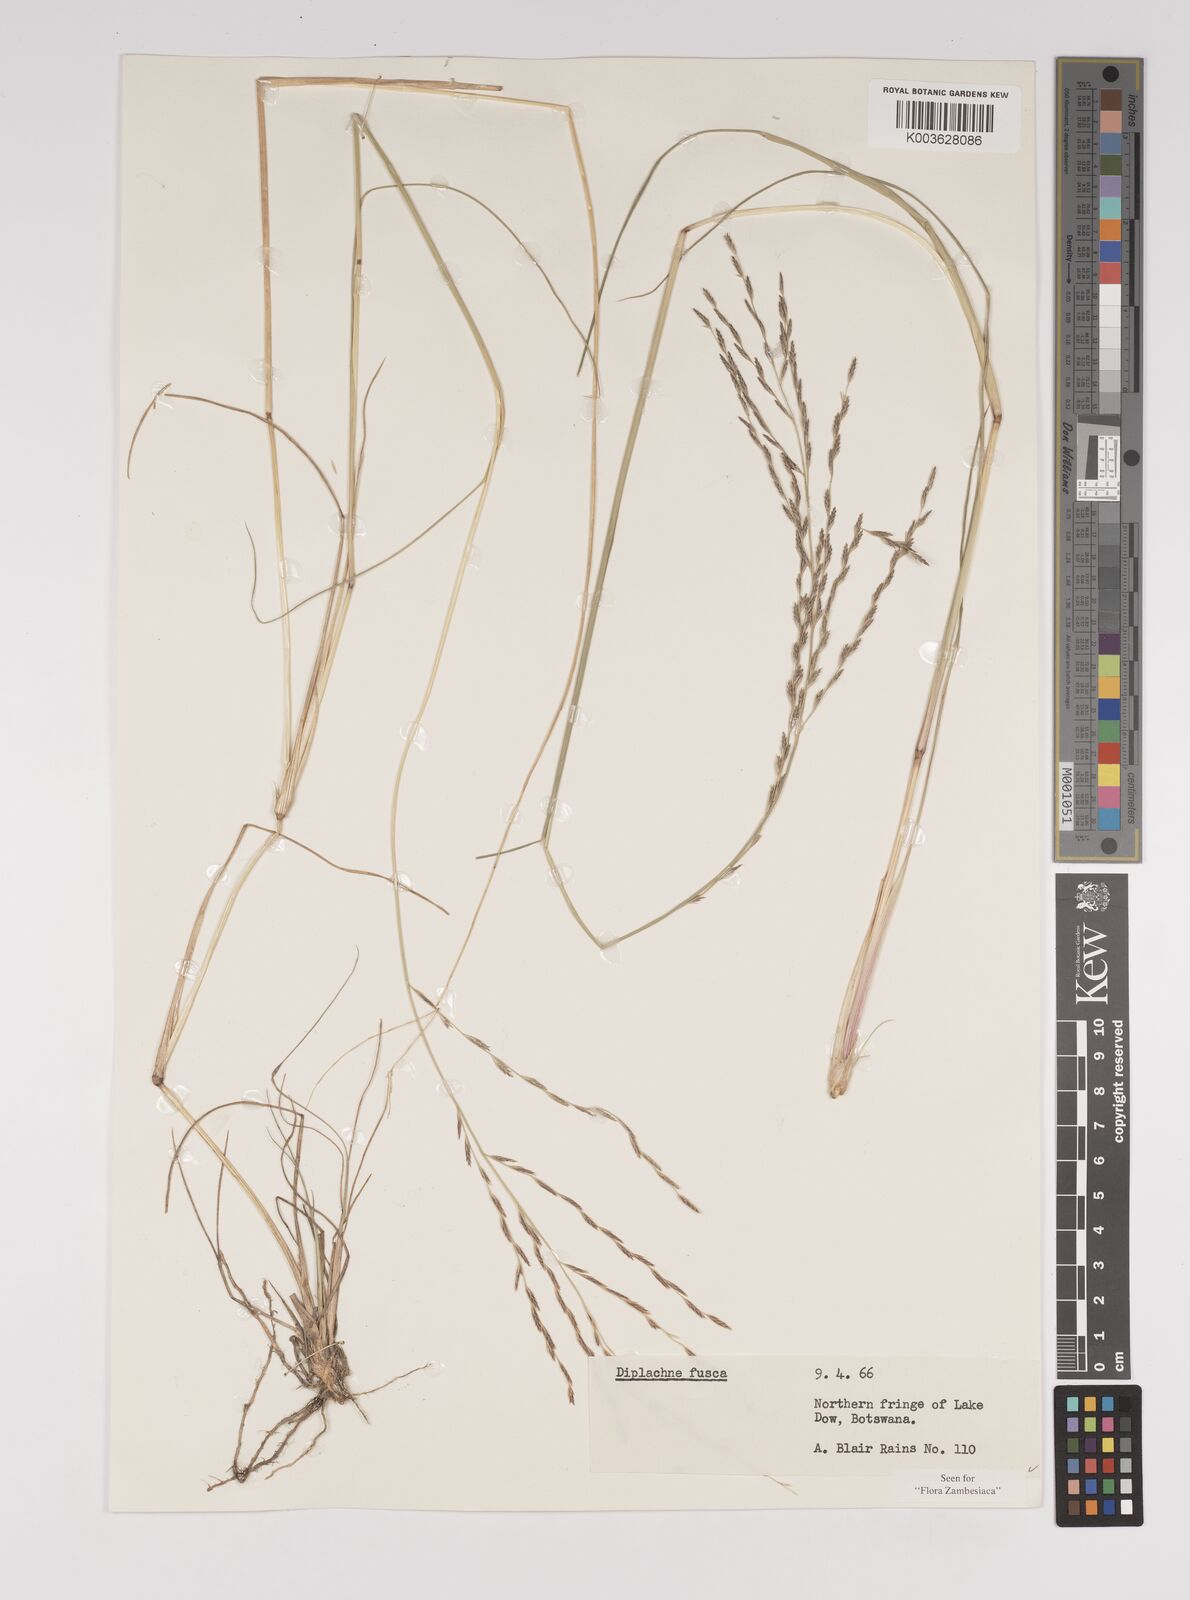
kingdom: Plantae
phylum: Tracheophyta
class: Liliopsida
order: Poales
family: Poaceae
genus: Diplachne
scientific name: Diplachne fusca
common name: Brown beetle grass
